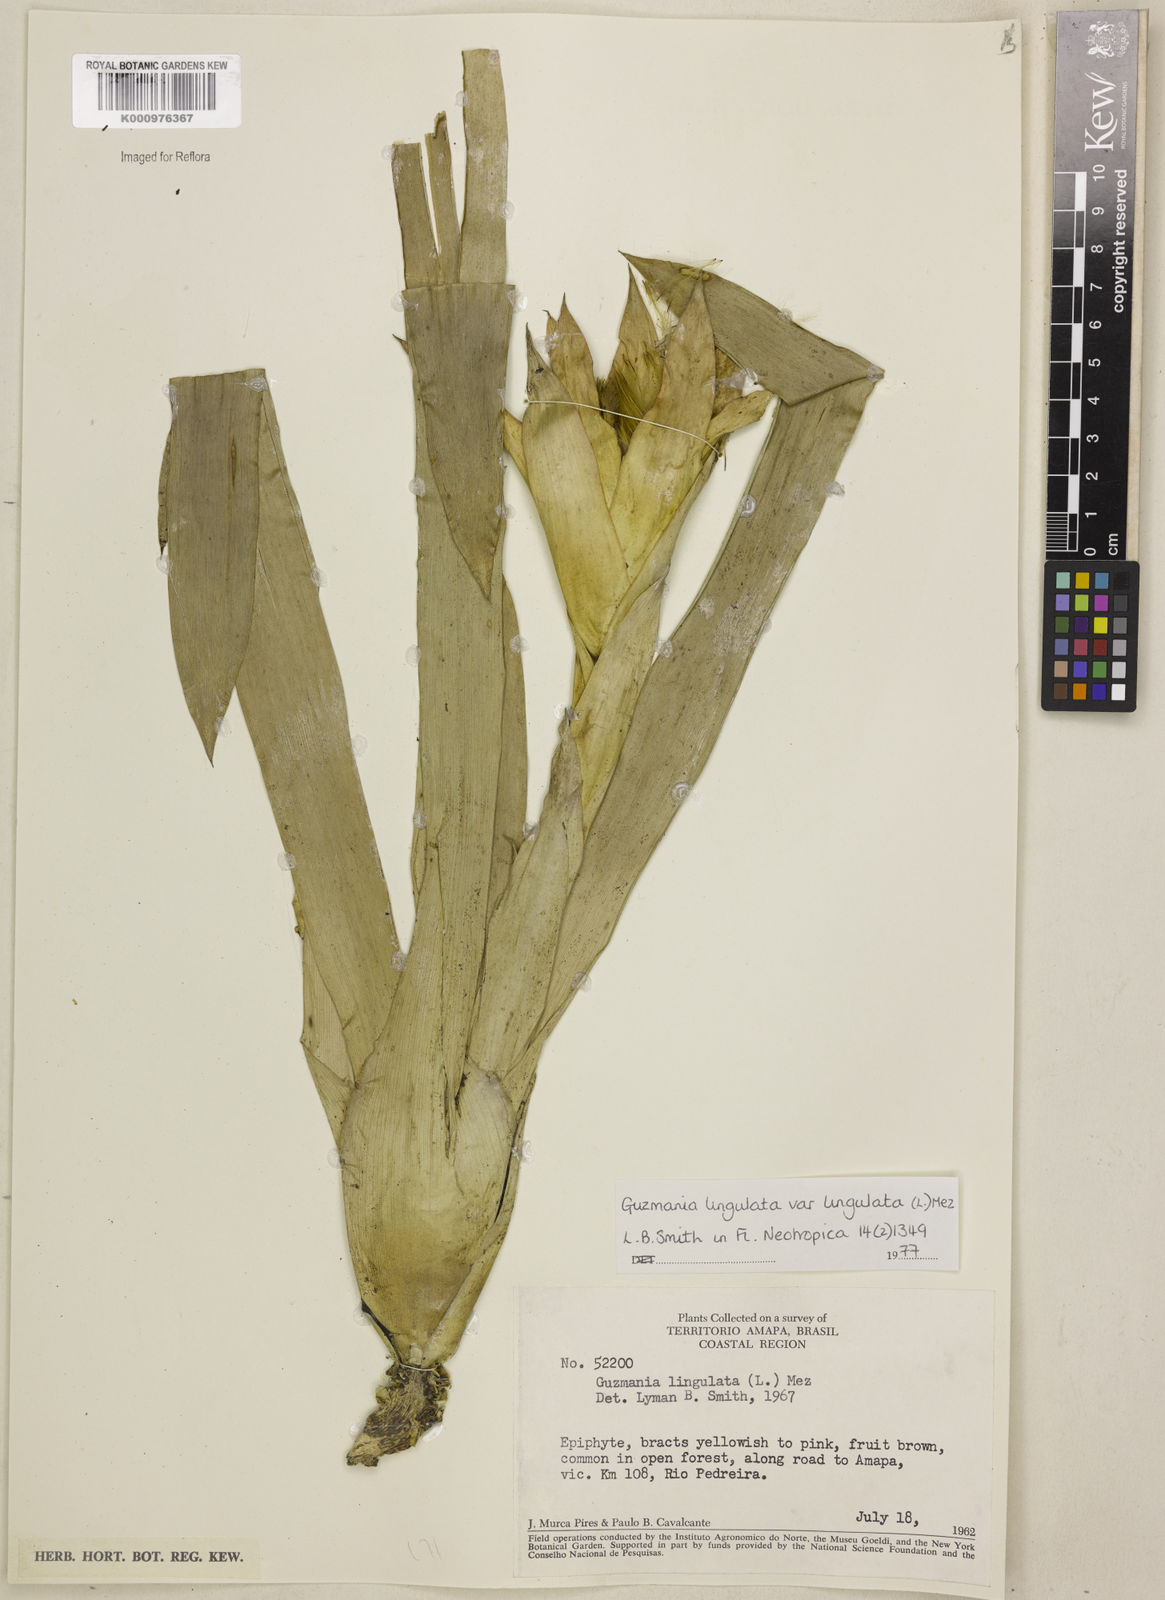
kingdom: Plantae
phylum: Tracheophyta
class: Liliopsida
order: Poales
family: Bromeliaceae
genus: Guzmania
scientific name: Guzmania lingulata
